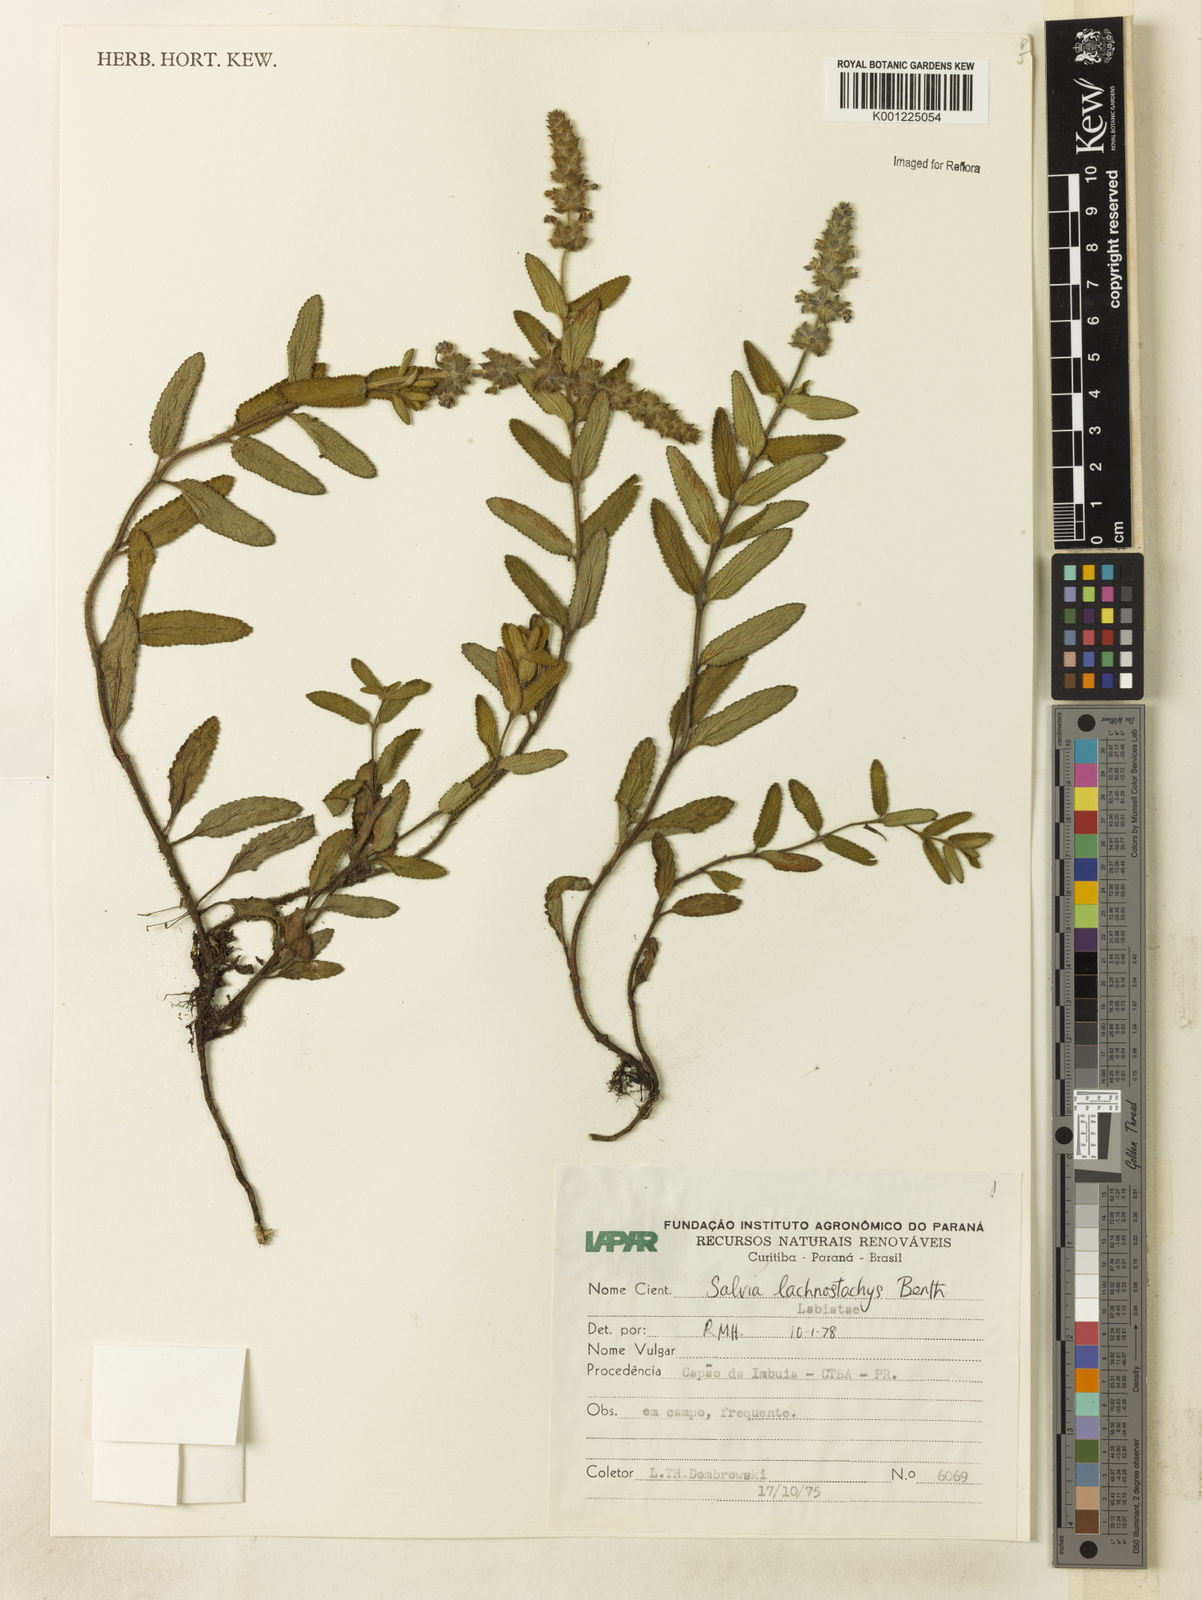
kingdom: Plantae
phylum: Tracheophyta
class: Magnoliopsida
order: Lamiales
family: Lamiaceae
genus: Salvia
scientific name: Salvia lachnostachys
